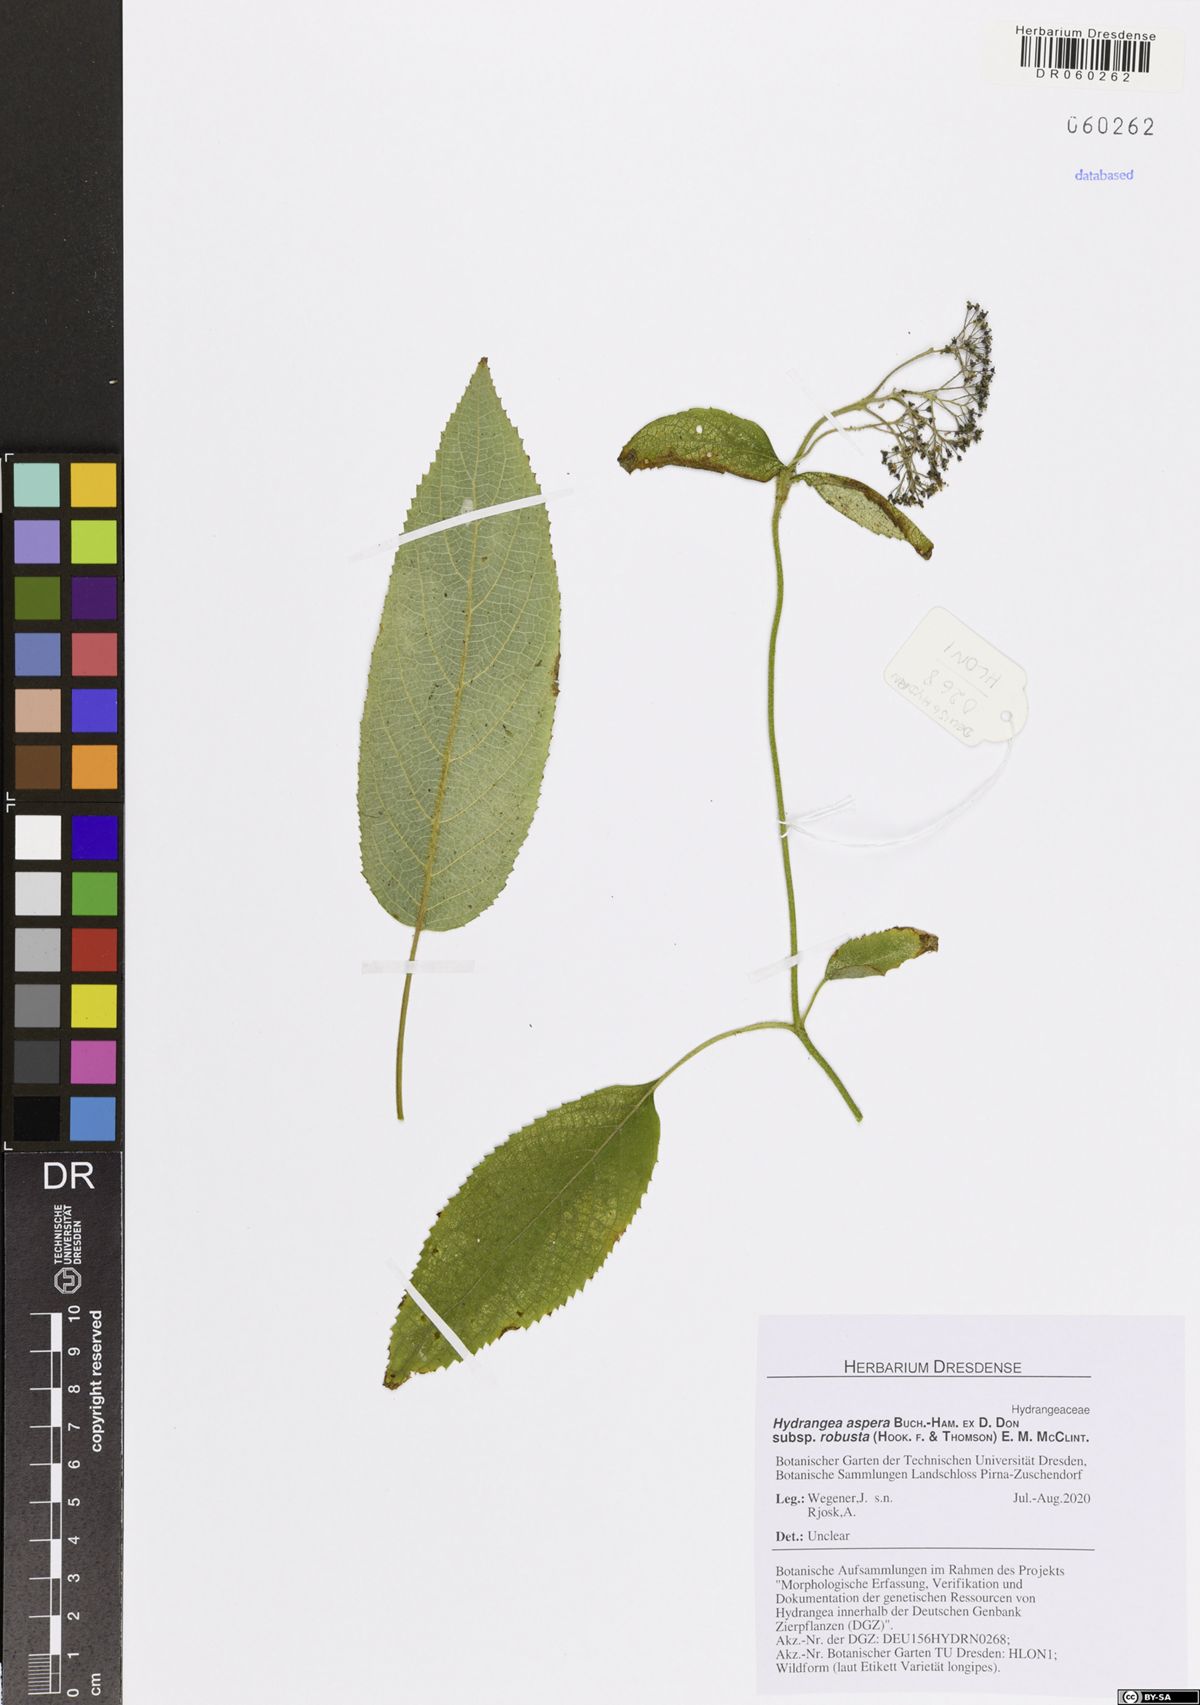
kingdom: Plantae
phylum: Tracheophyta
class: Magnoliopsida
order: Cornales
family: Hydrangeaceae
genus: Hydrangea
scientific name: Hydrangea aspera
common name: Rough-leaf hydrangea
